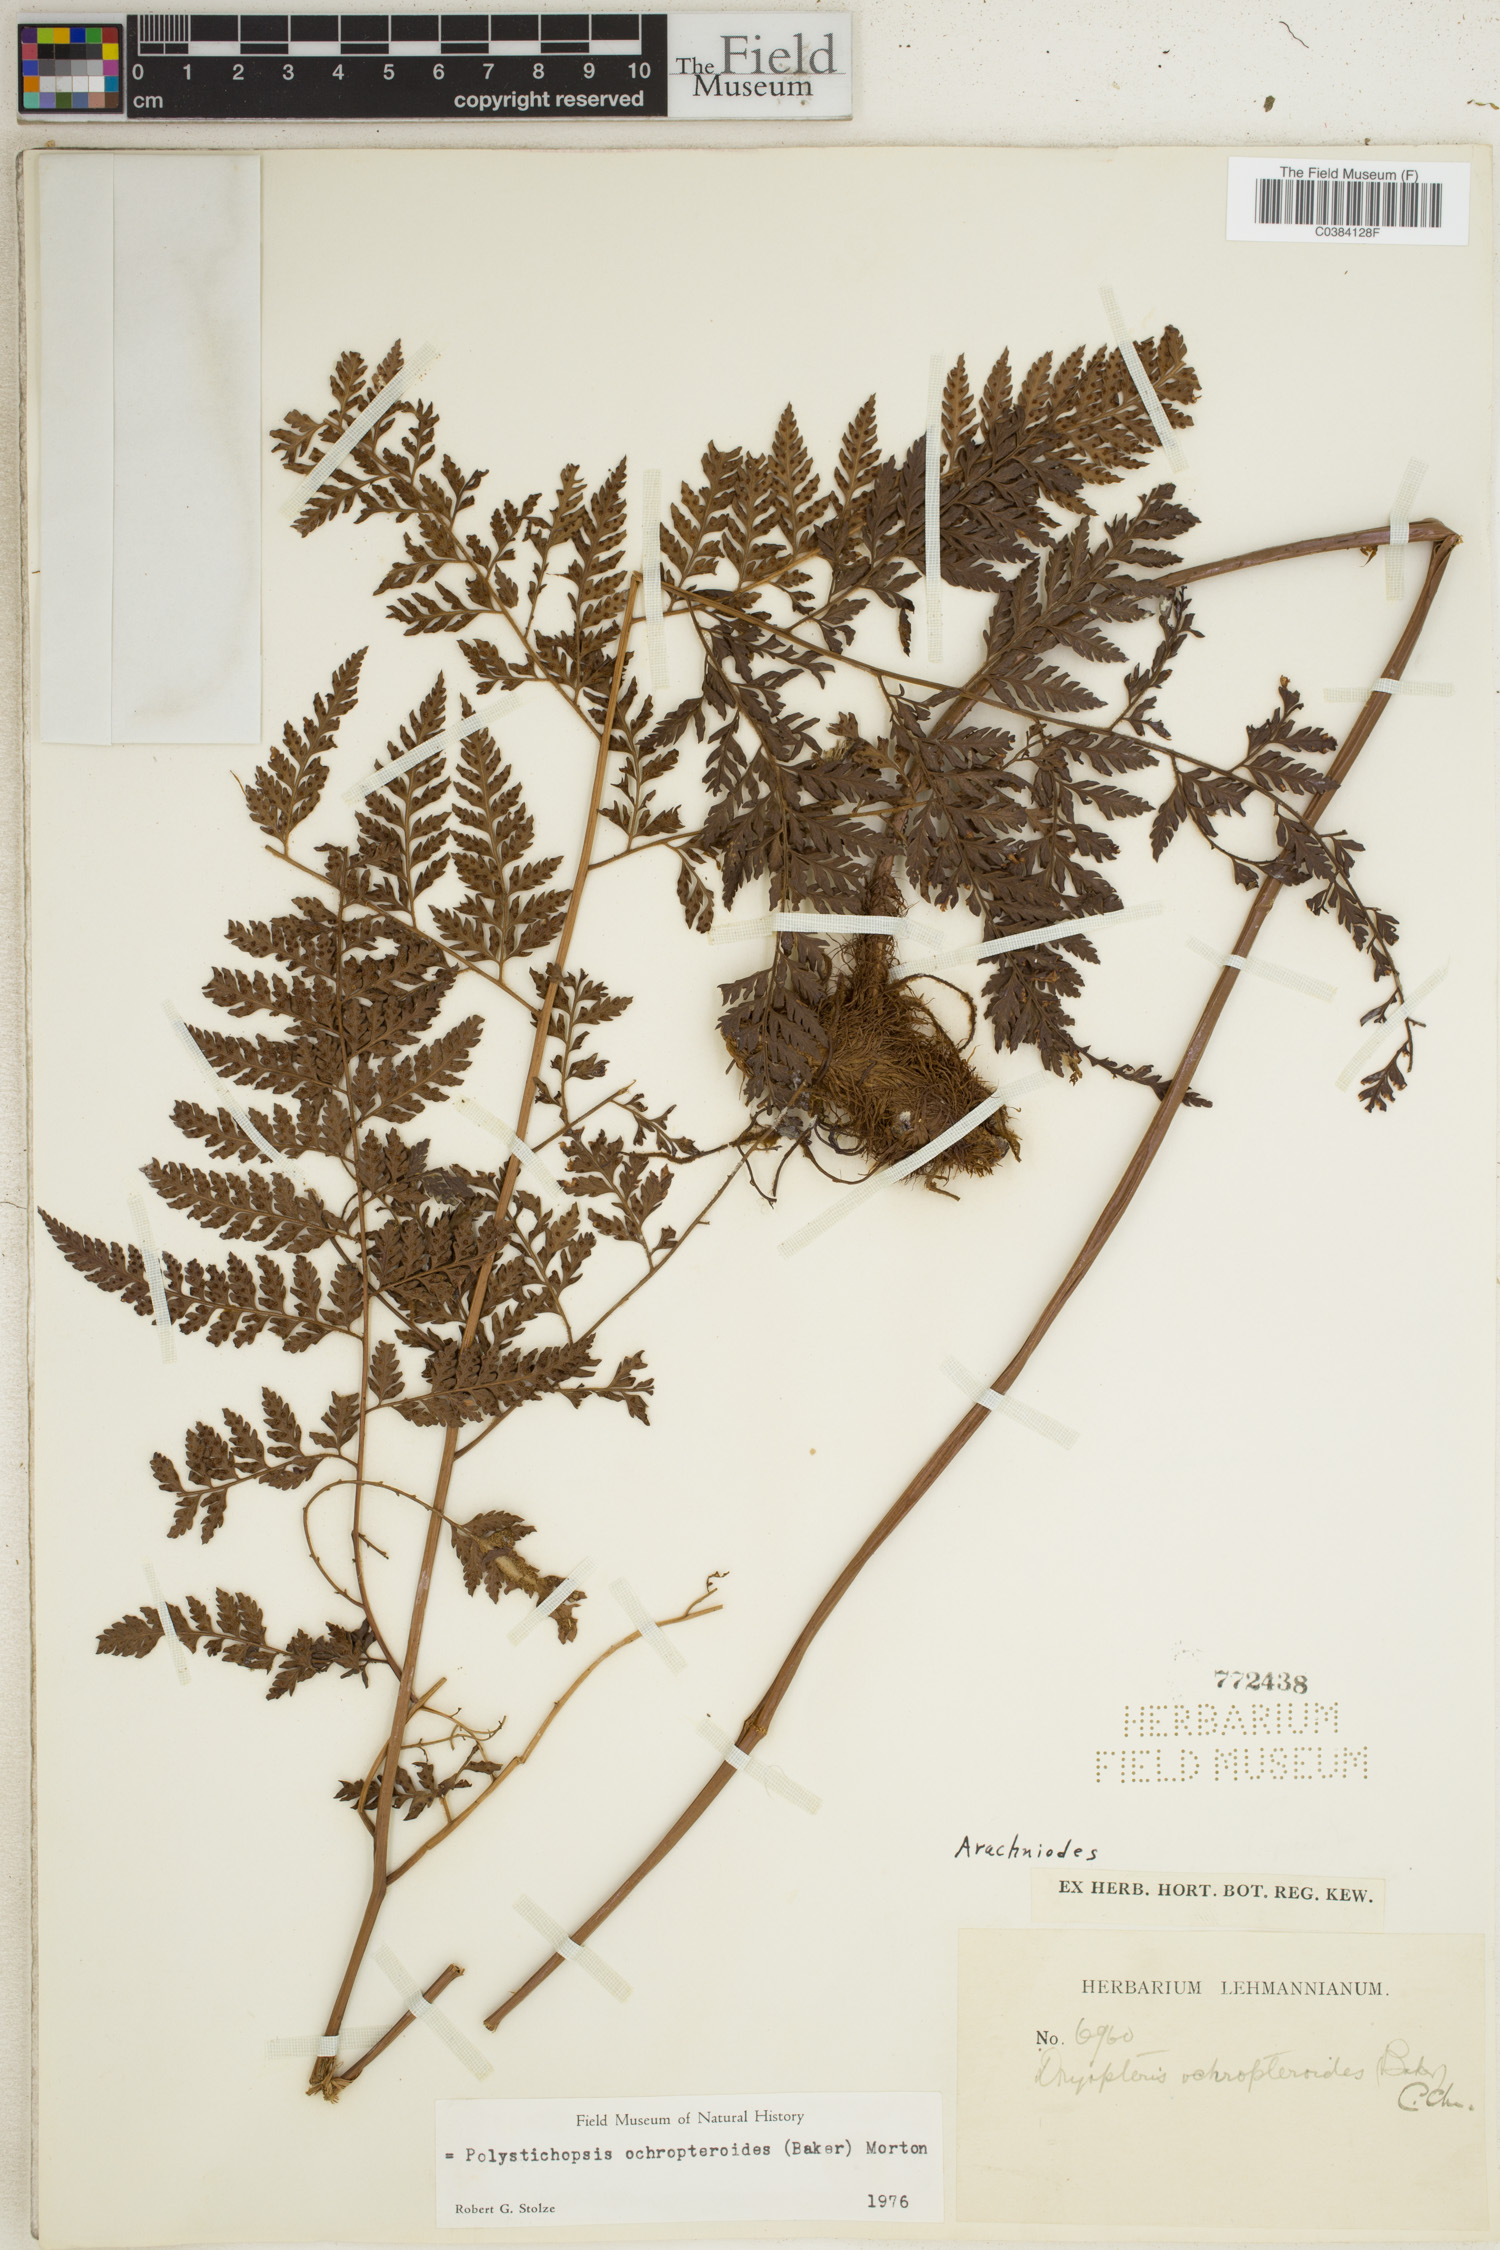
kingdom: Plantae
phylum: Tracheophyta
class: Polypodiopsida
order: Polypodiales
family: Dryopteridaceae
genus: Olfersia
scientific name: Olfersia ochropteroides
